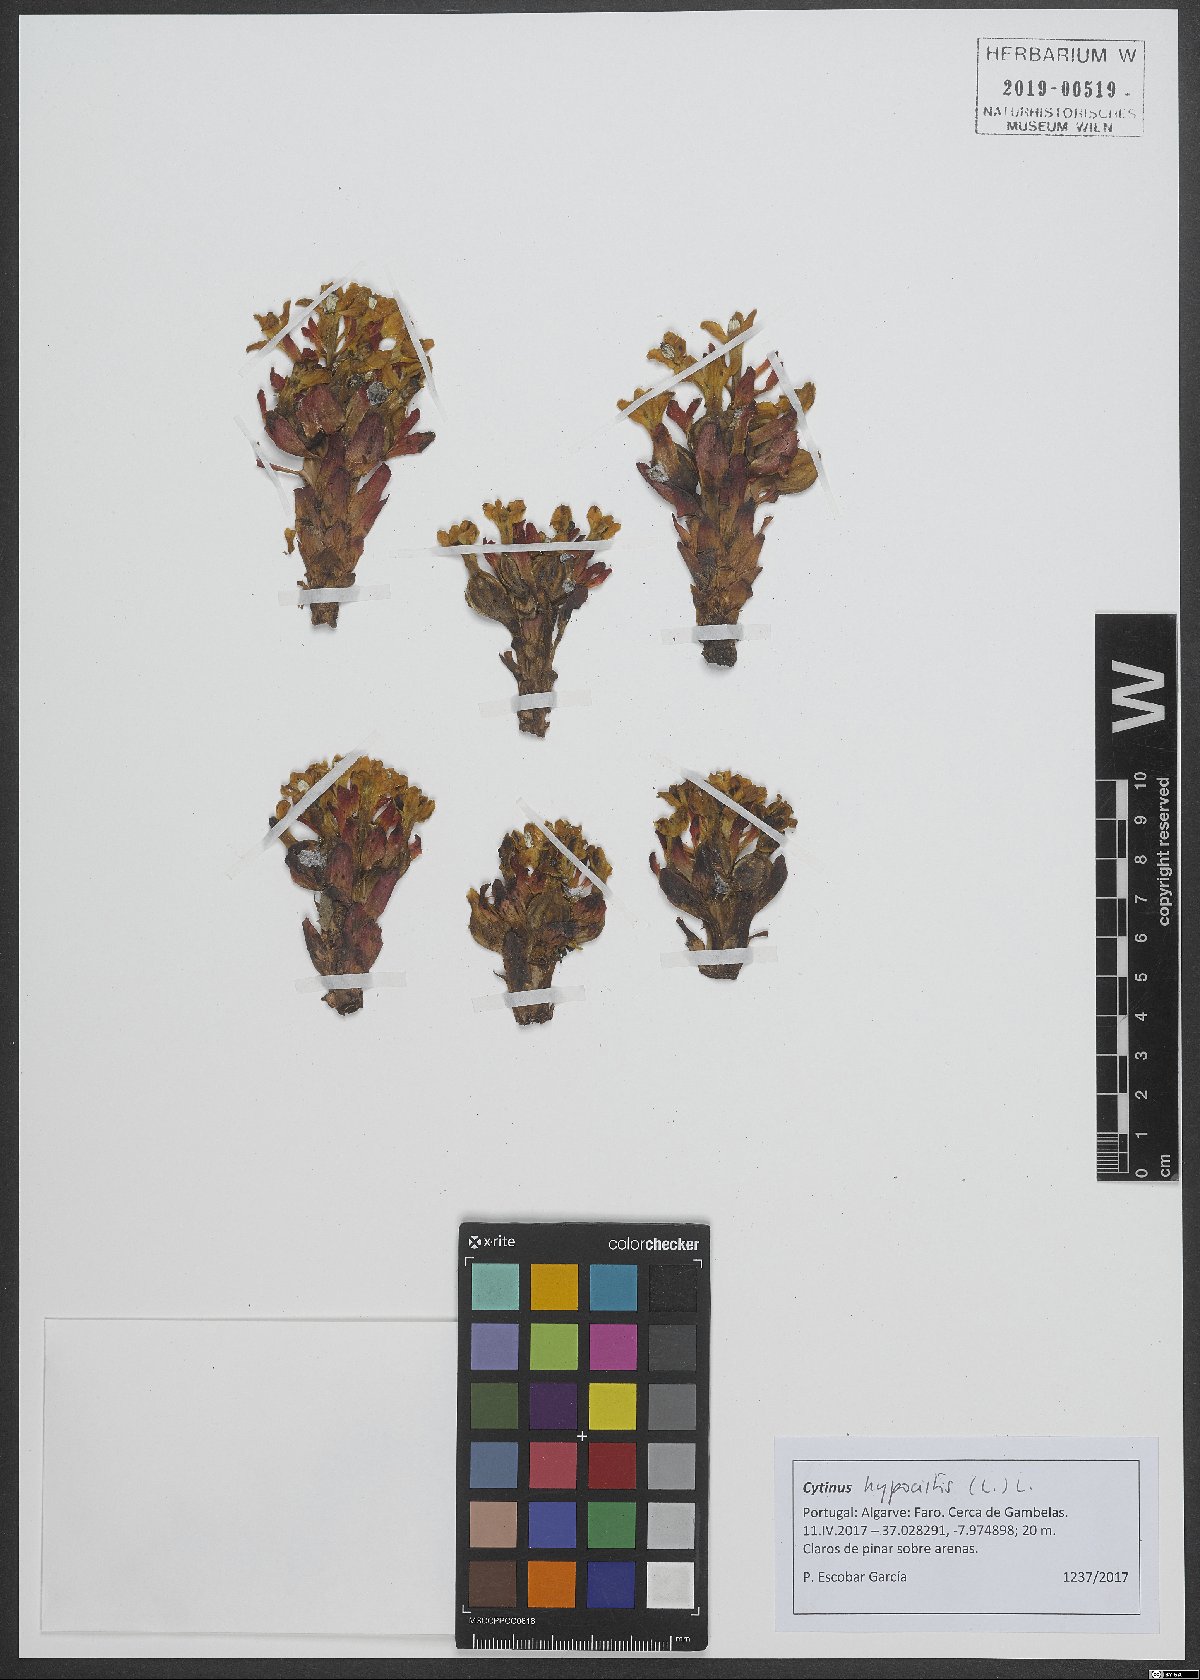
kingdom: Plantae
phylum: Tracheophyta
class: Magnoliopsida
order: Malvales
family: Cytinaceae
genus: Cytinus
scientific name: Cytinus hypocistis
